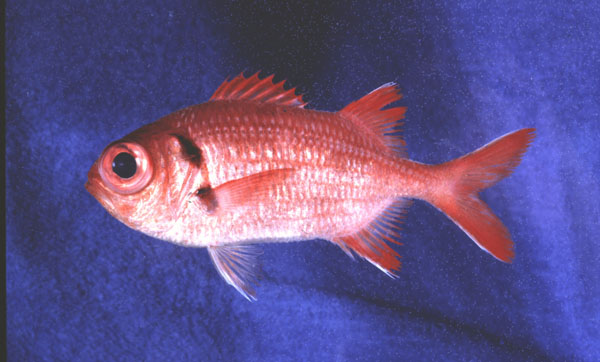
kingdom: Animalia
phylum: Chordata
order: Beryciformes
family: Holocentridae
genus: Myripristis
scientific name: Myripristis kuntee
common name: Epaulette soldierfish
